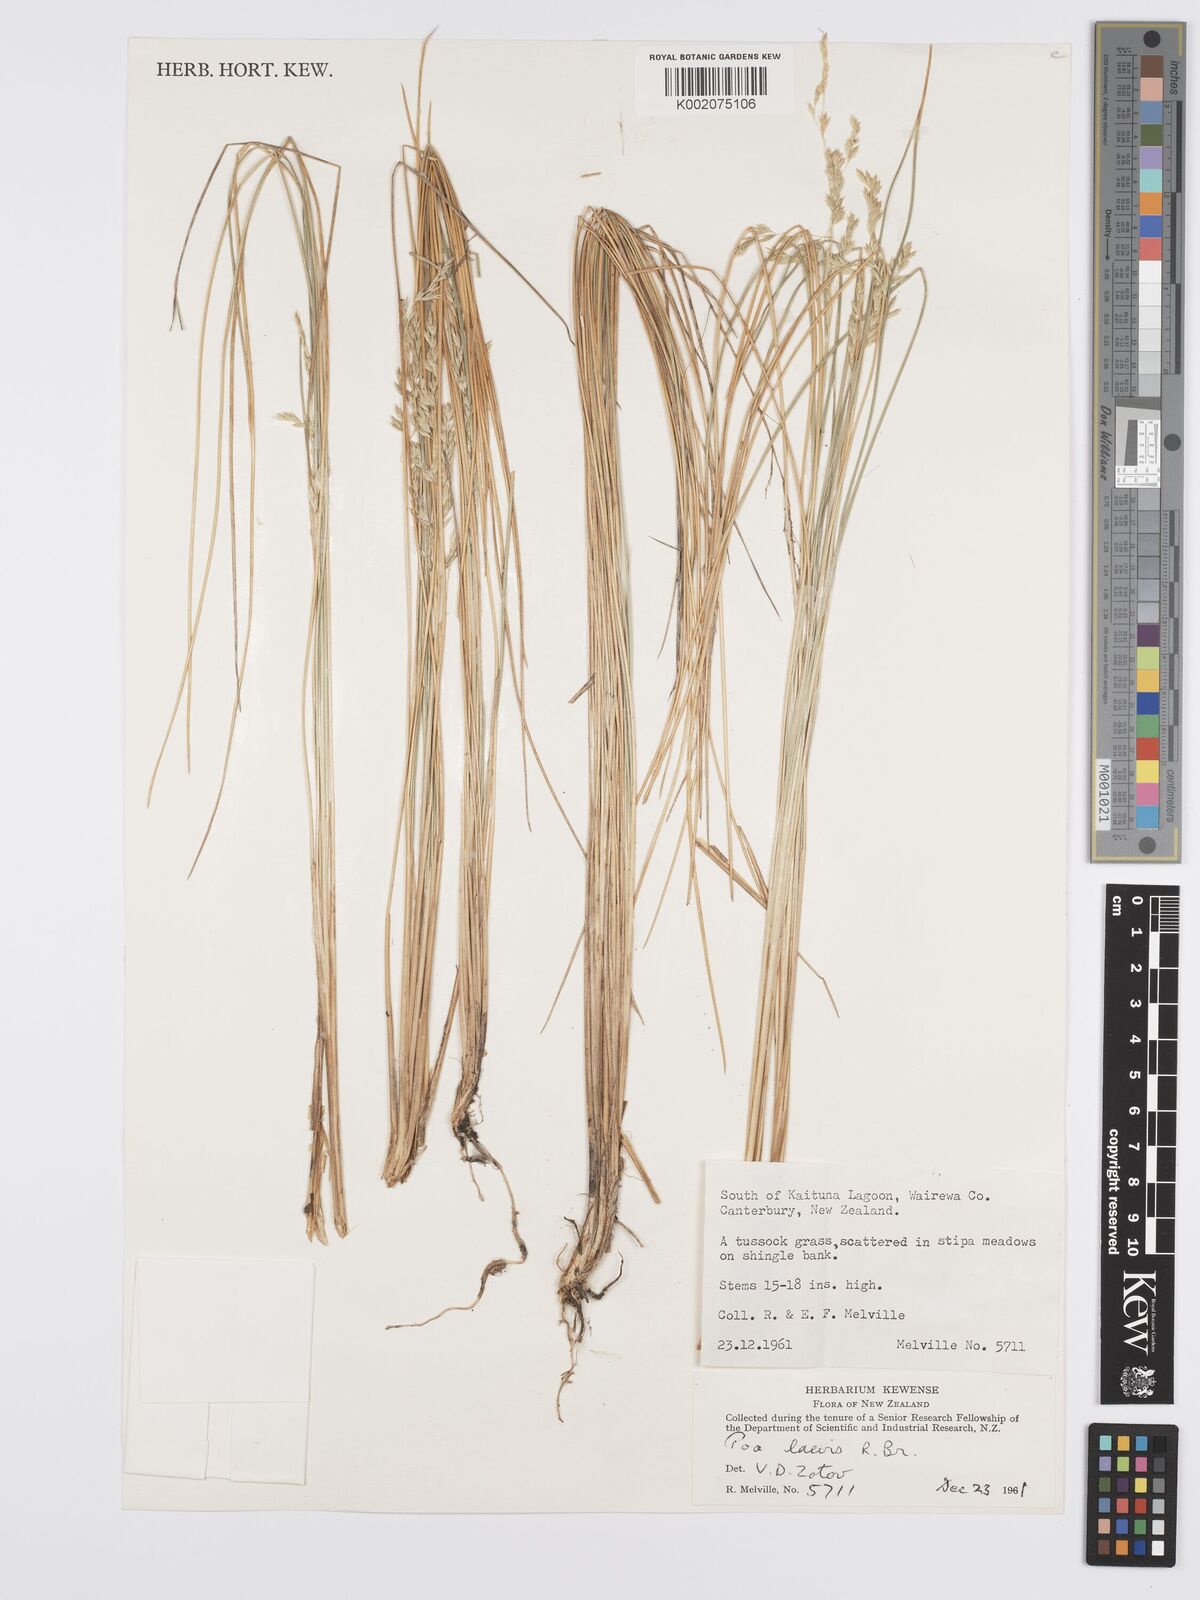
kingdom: Plantae
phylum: Tracheophyta
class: Liliopsida
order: Poales
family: Poaceae
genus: Poa
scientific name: Poa poiformis
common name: Tussock poa
